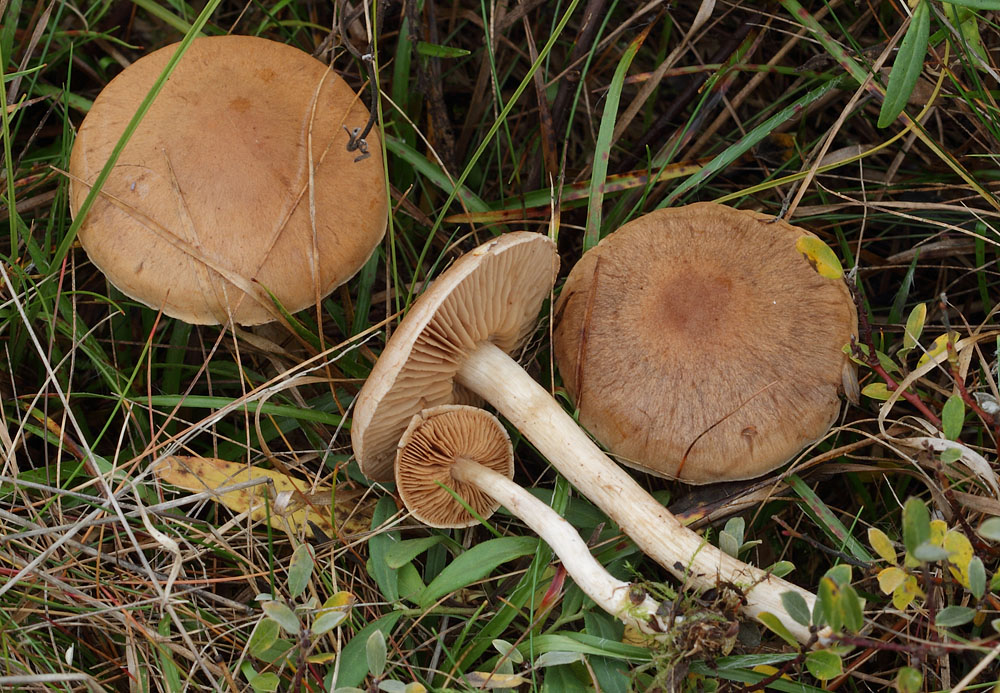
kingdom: Fungi
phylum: Basidiomycota
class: Agaricomycetes
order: Agaricales
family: Cortinariaceae
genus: Cortinarius
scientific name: Cortinarius tabularis
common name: lerbrun slørhat
